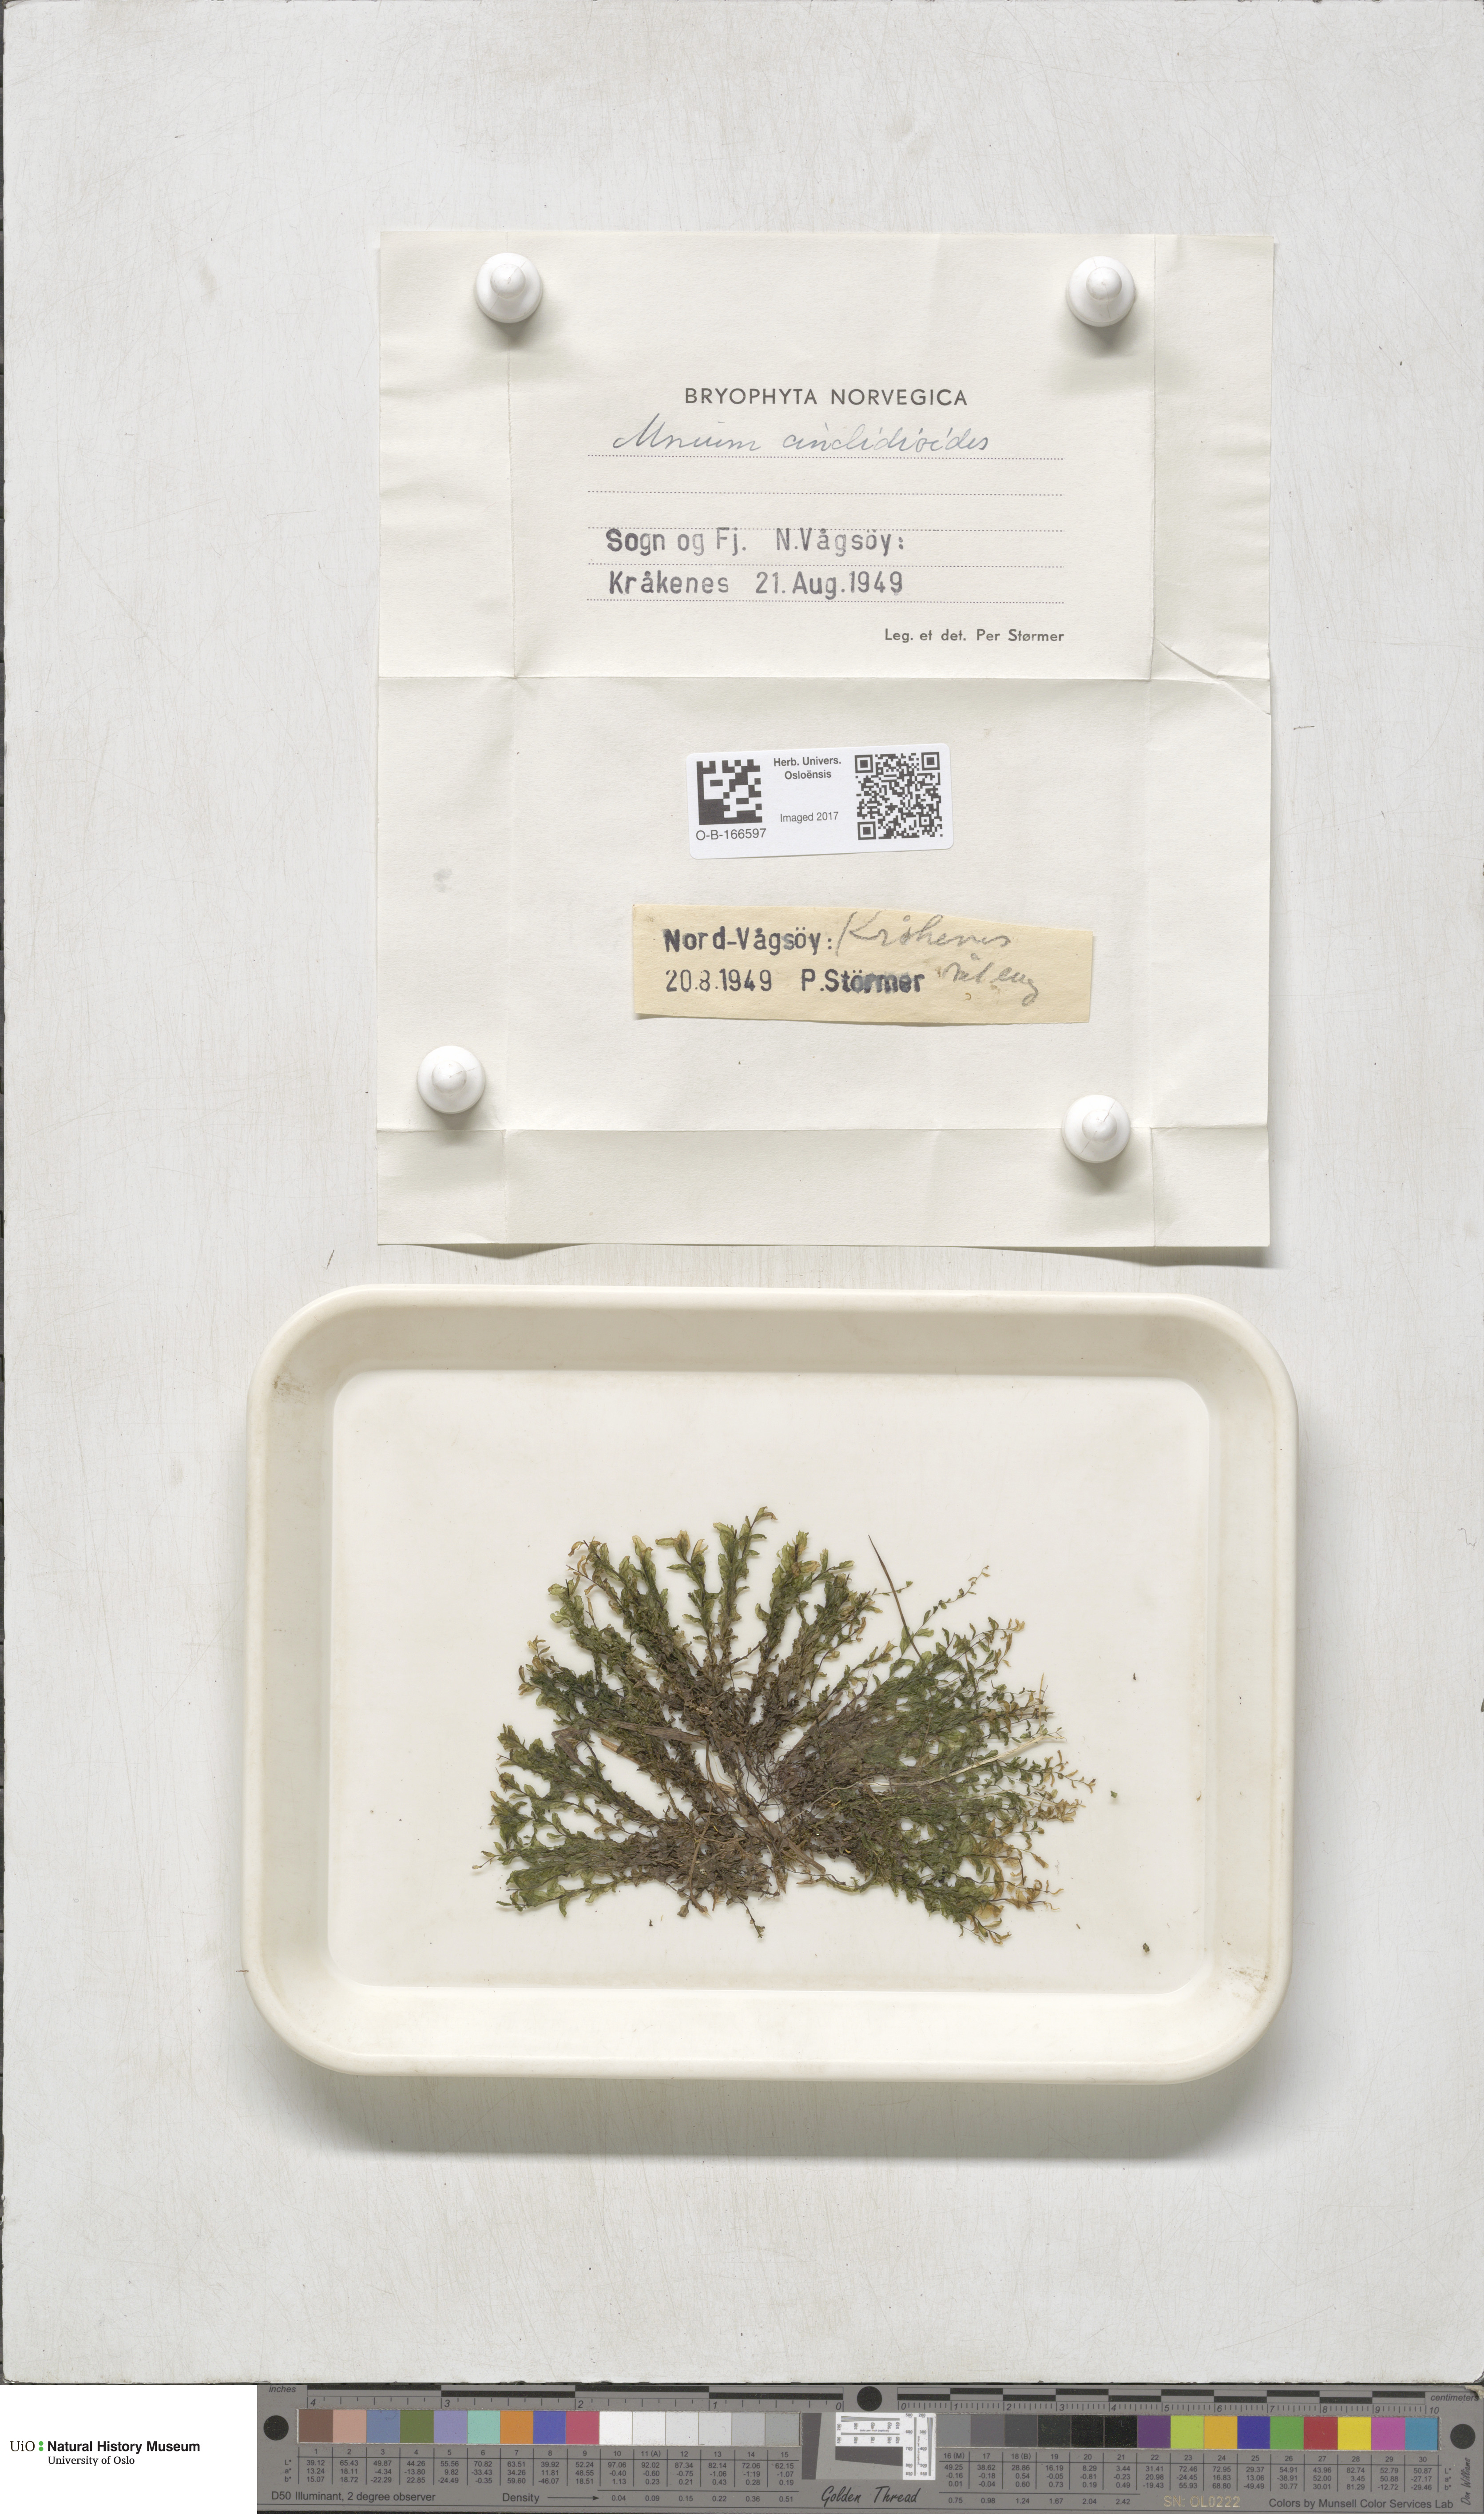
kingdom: Plantae
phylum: Bryophyta
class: Bryopsida
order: Bryales
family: Mniaceae
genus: Pseudobryum
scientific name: Pseudobryum cinclidioides
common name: River thyme moss
